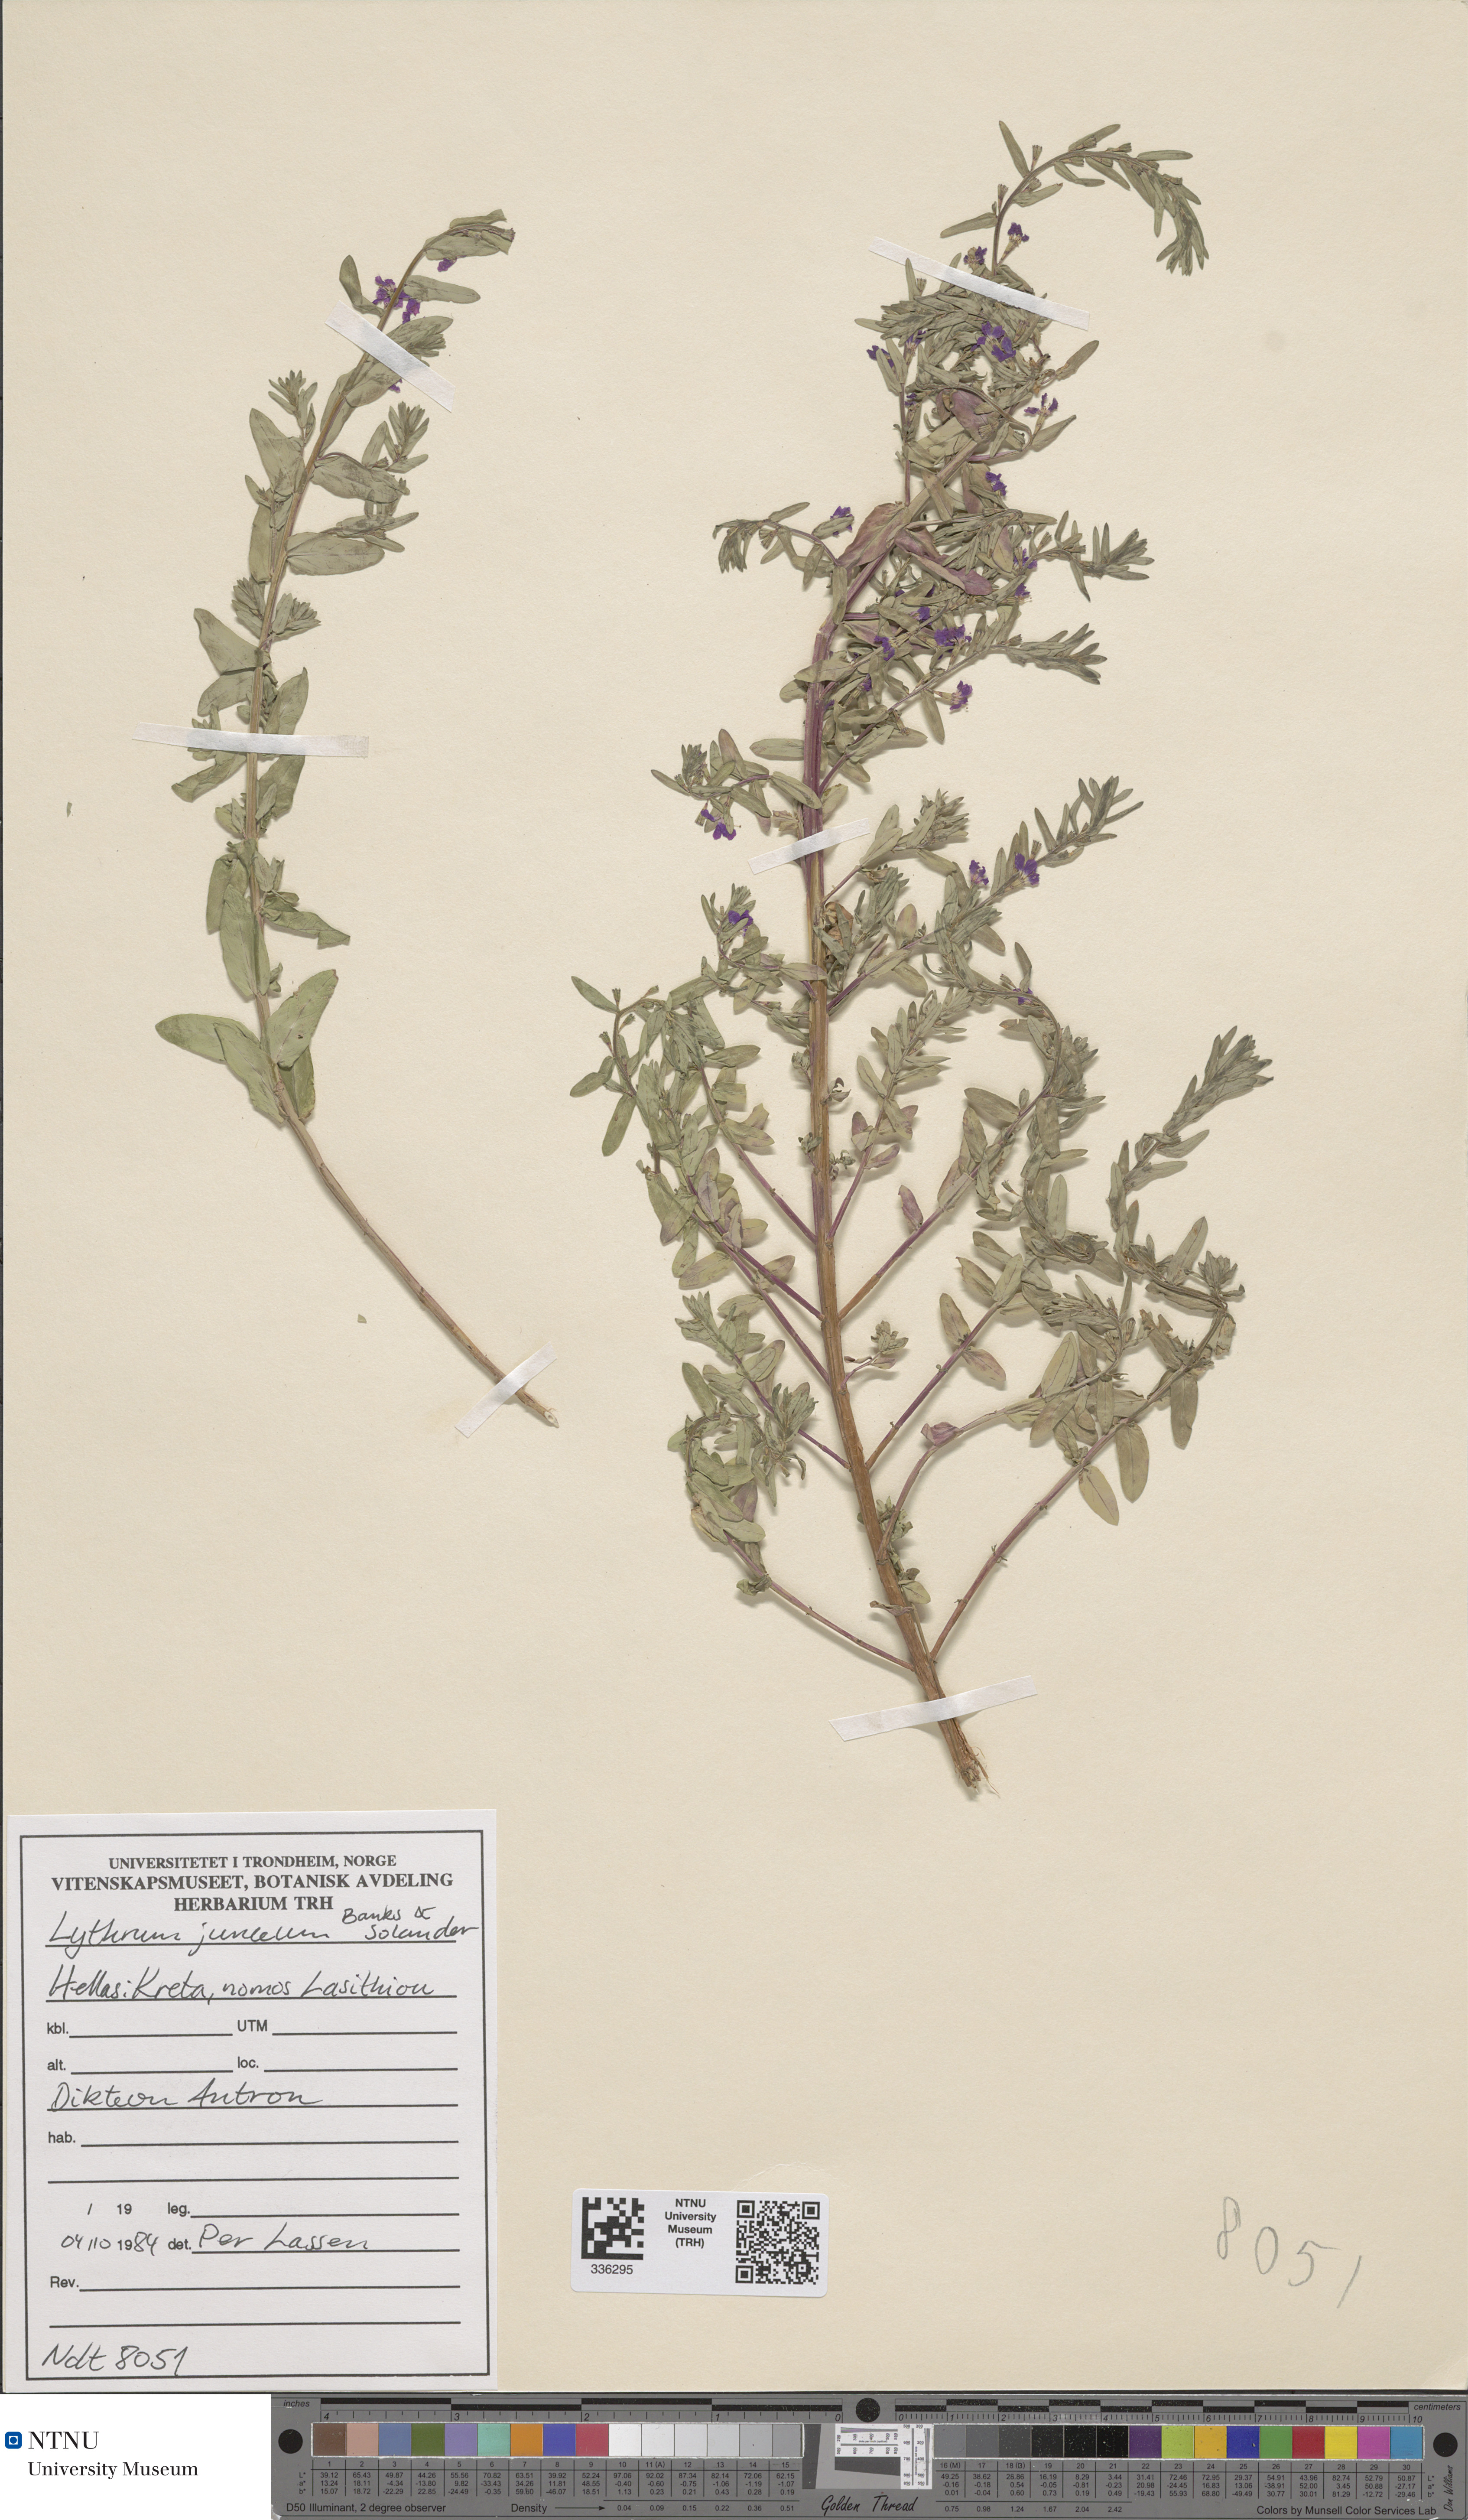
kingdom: Plantae
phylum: Tracheophyta
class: Magnoliopsida
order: Myrtales
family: Lythraceae
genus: Lythrum
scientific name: Lythrum junceum
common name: False grass-poly
